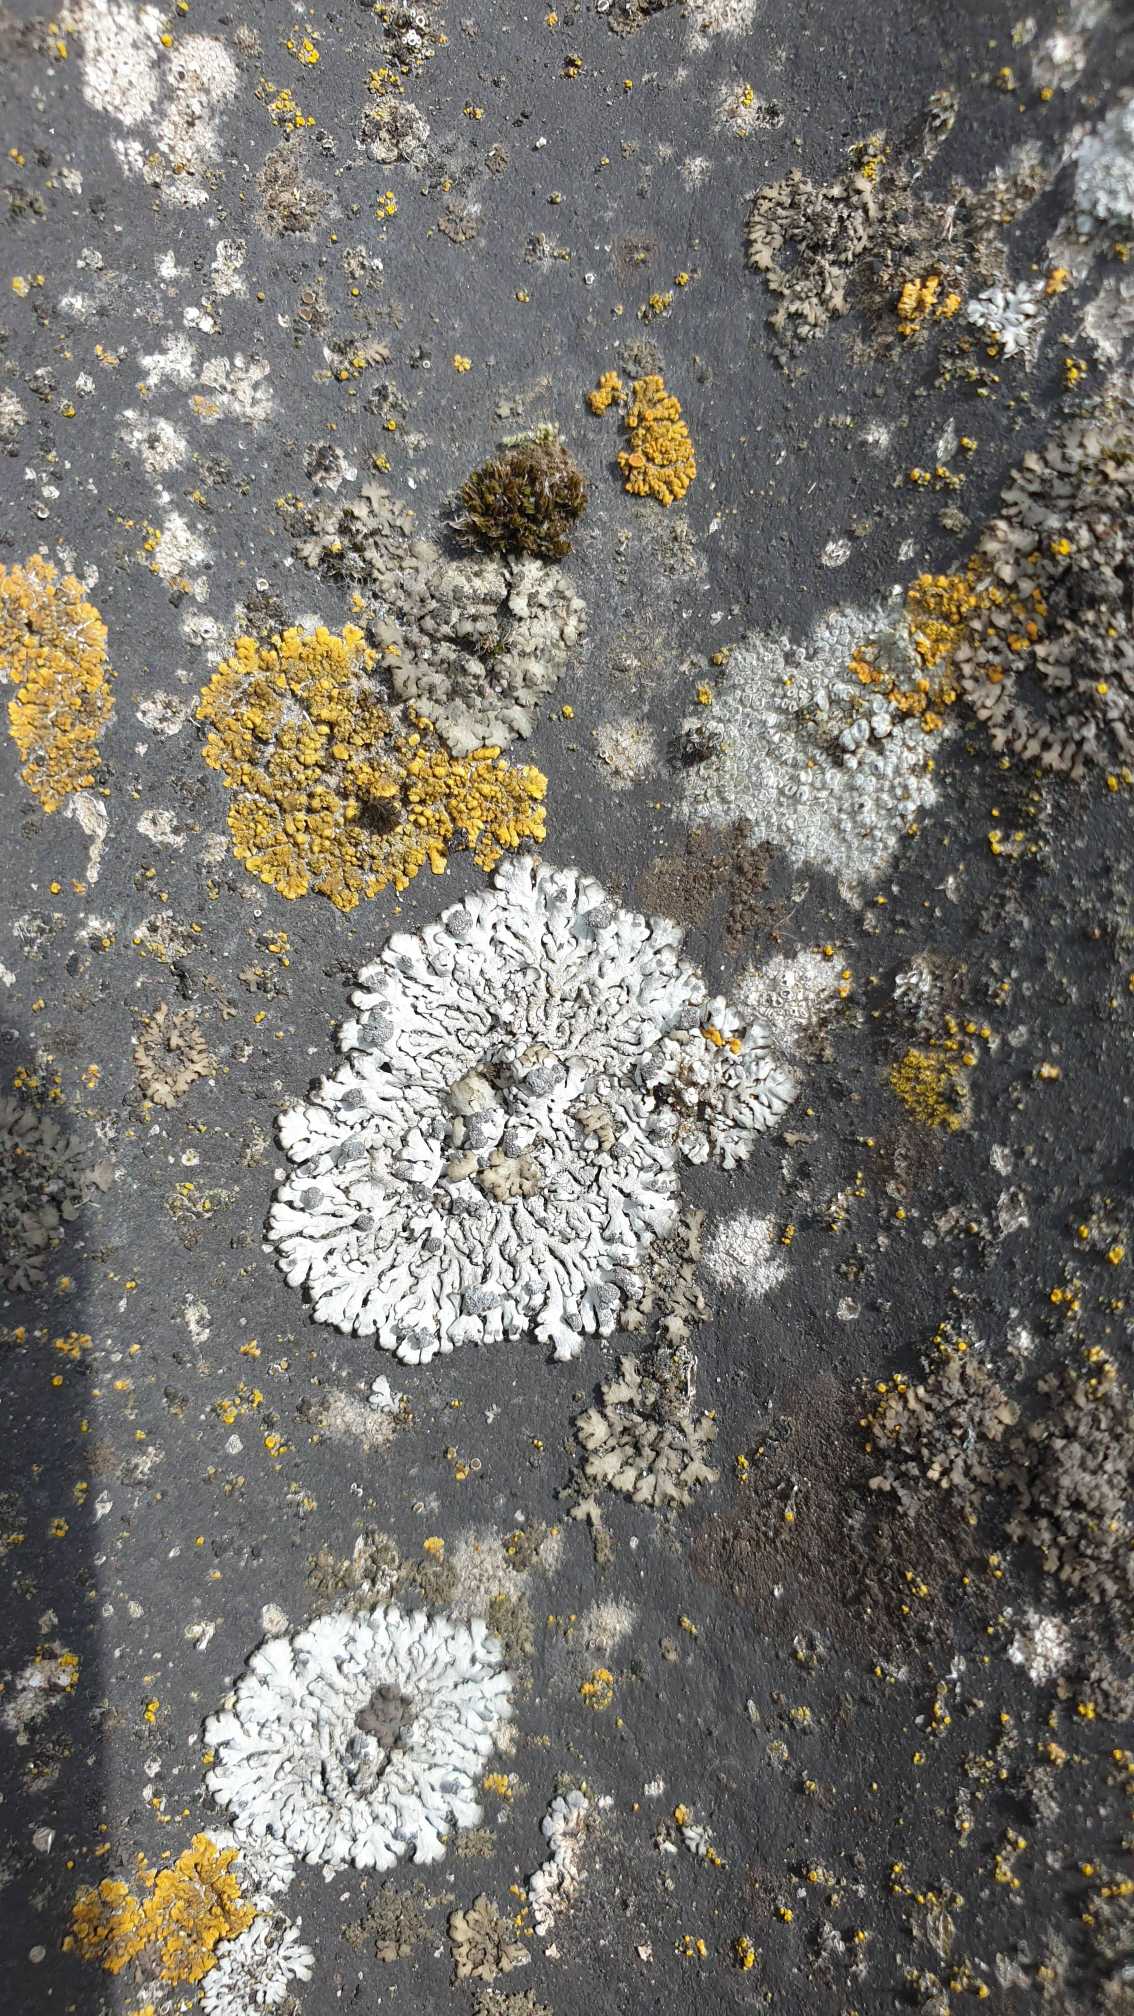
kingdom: Fungi
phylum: Ascomycota
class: Lecanoromycetes
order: Caliciales
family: Physciaceae
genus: Physcia
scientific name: Physcia caesia
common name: Blågrå rosetlav
